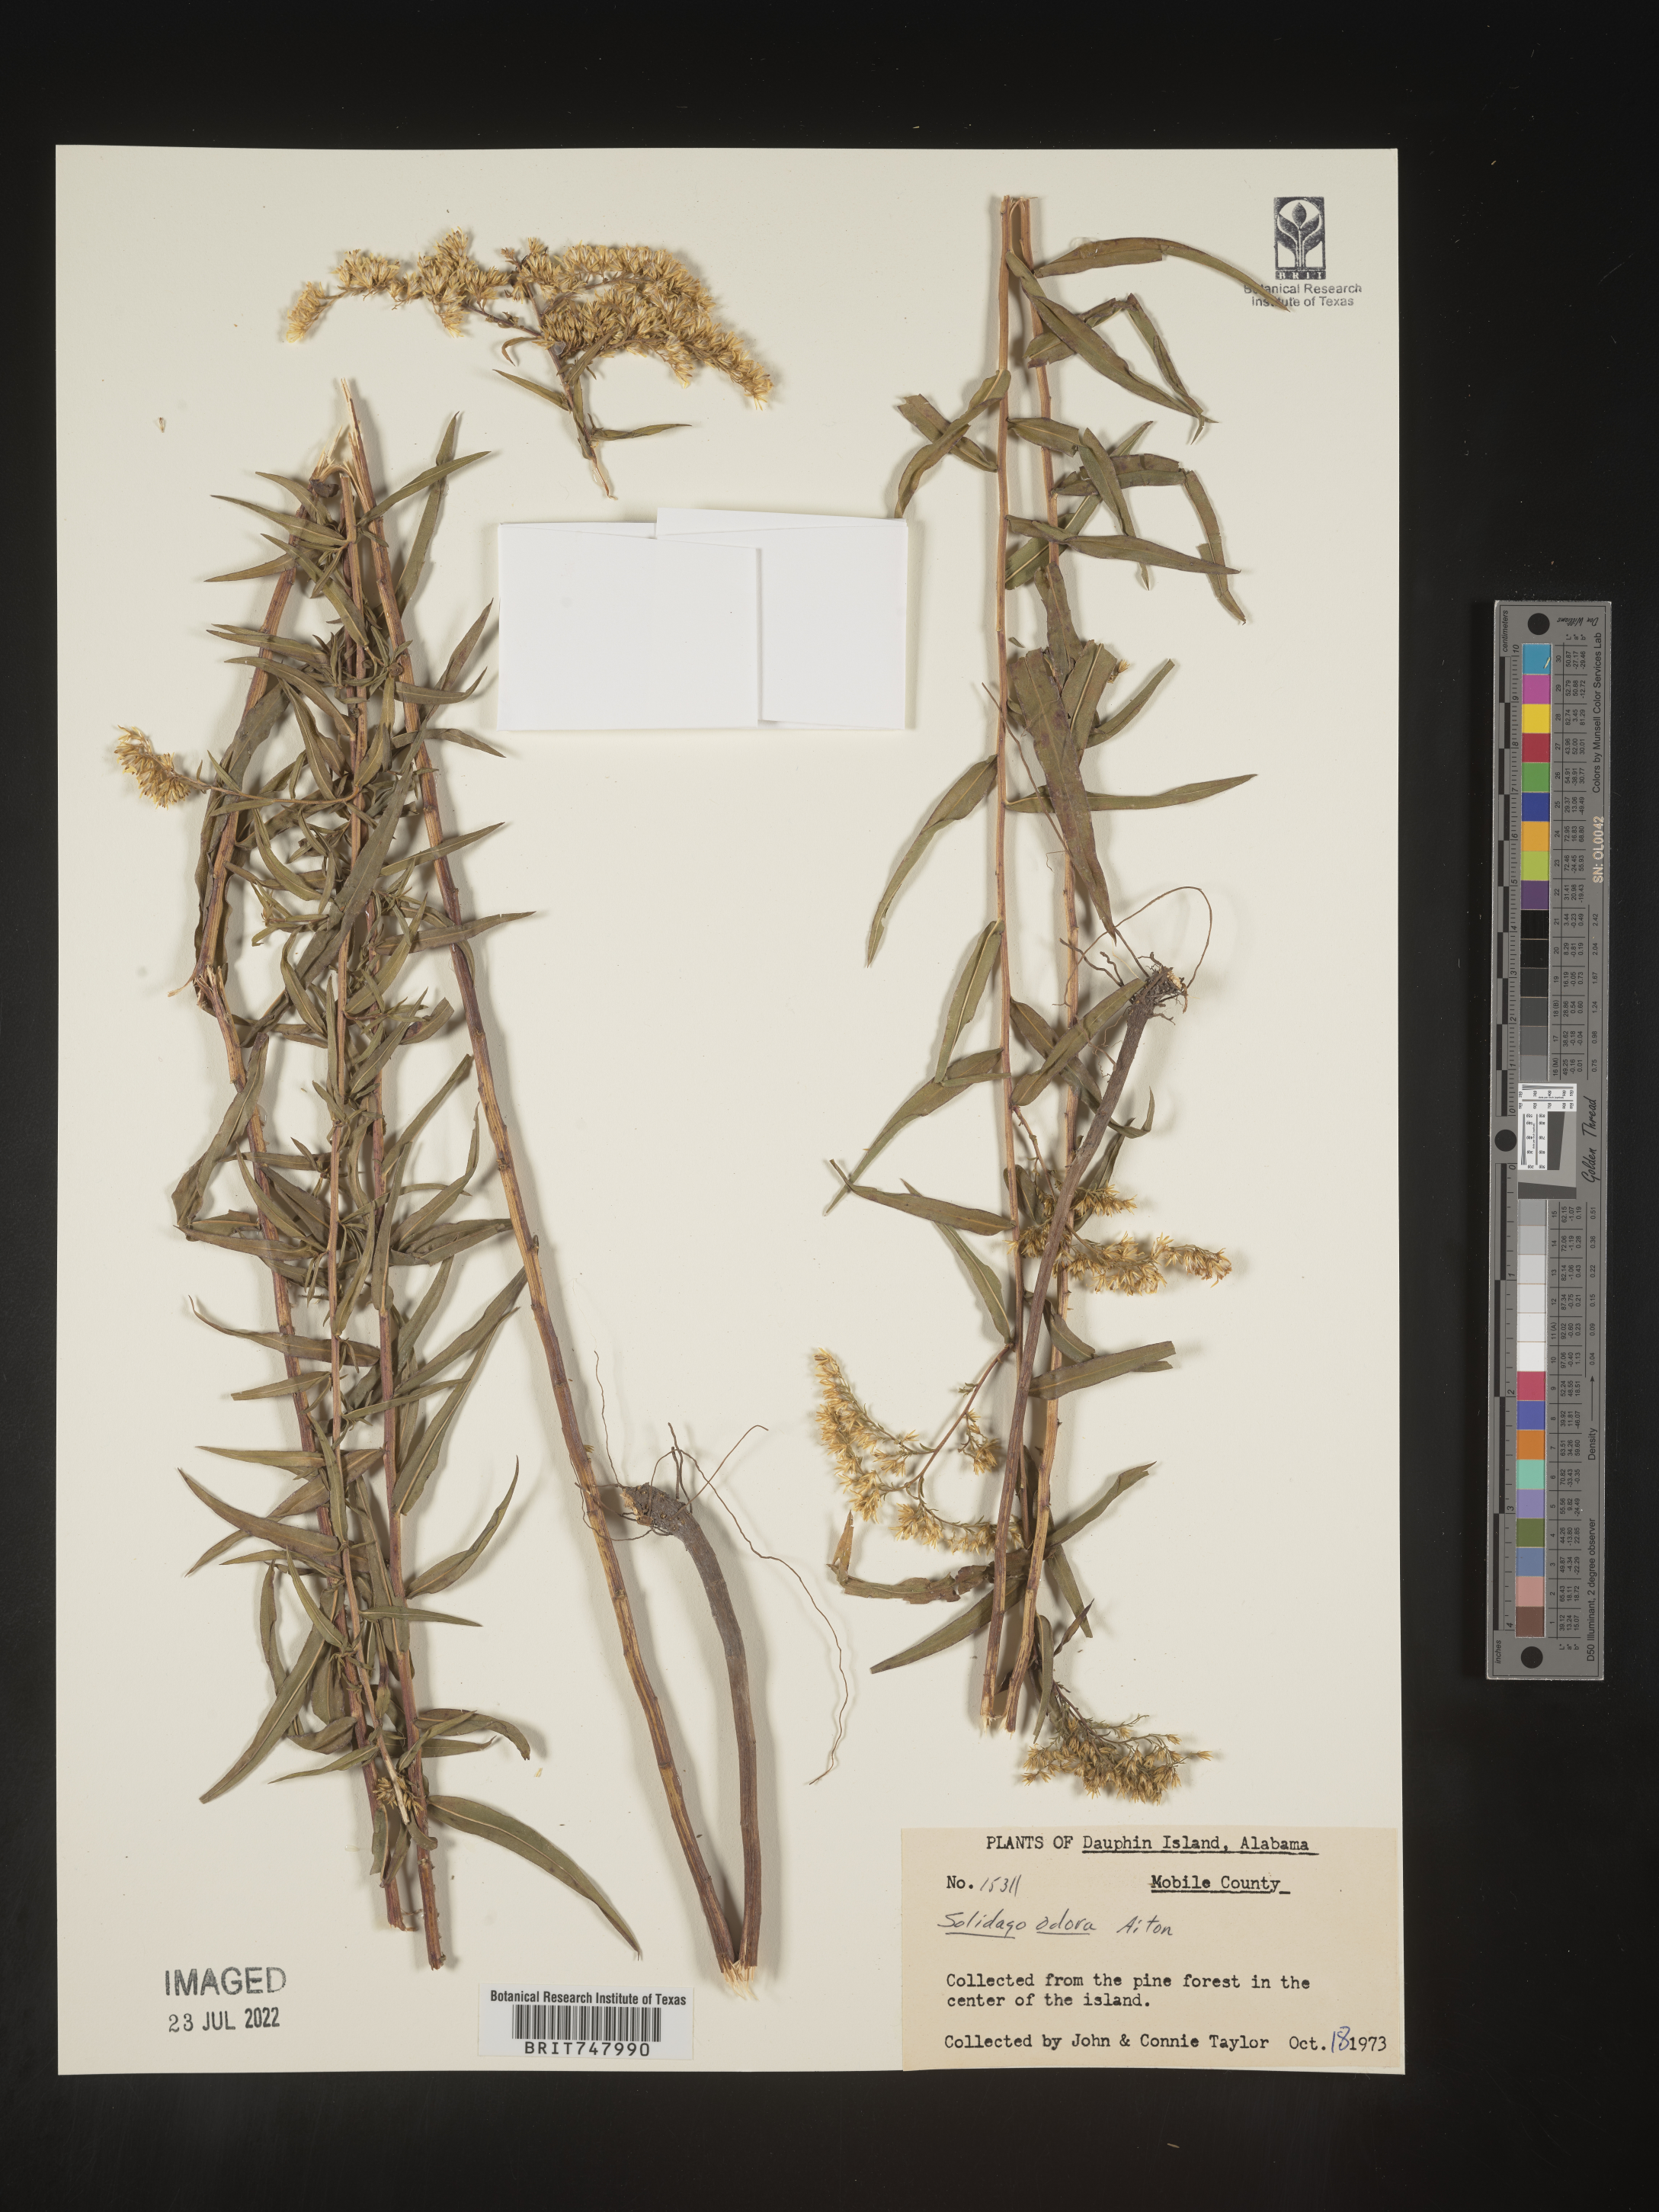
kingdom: Plantae
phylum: Tracheophyta
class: Magnoliopsida
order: Asterales
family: Asteraceae
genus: Solidago
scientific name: Solidago odora
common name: Anise-scented goldenrod
